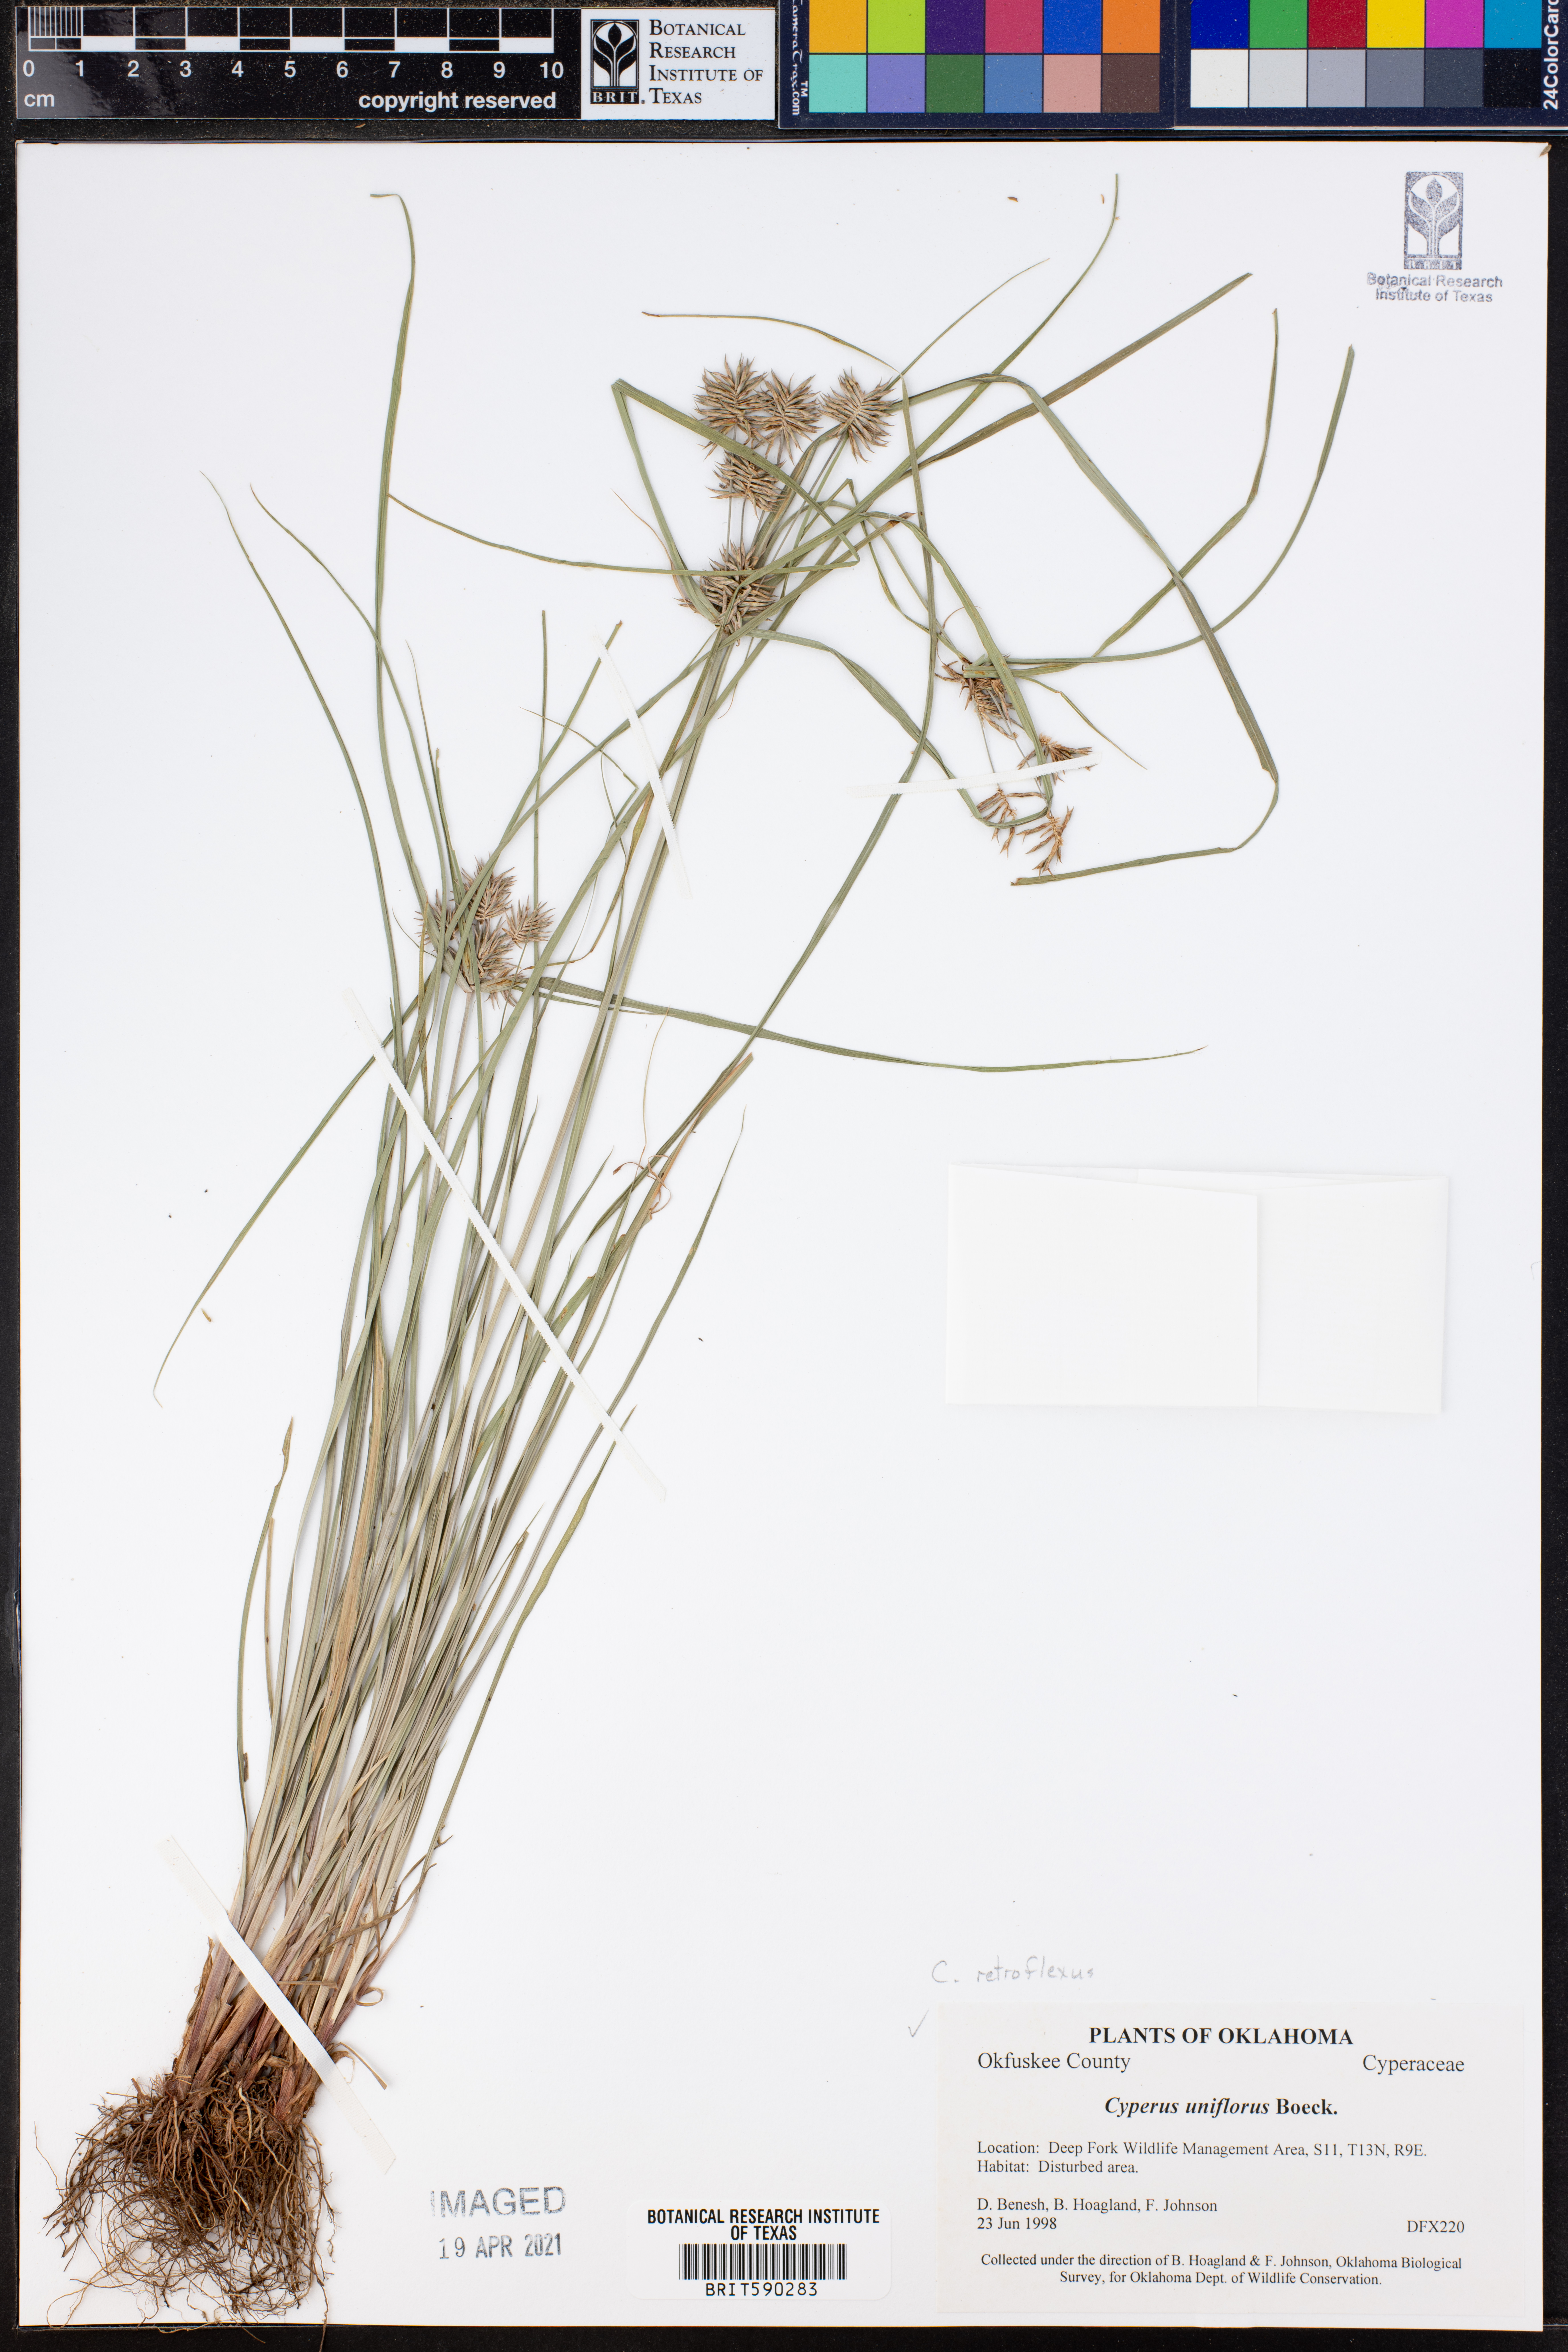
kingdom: Plantae
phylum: Tracheophyta
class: Liliopsida
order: Poales
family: Cyperaceae
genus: Cyperus
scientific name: Cyperus retroflexus
